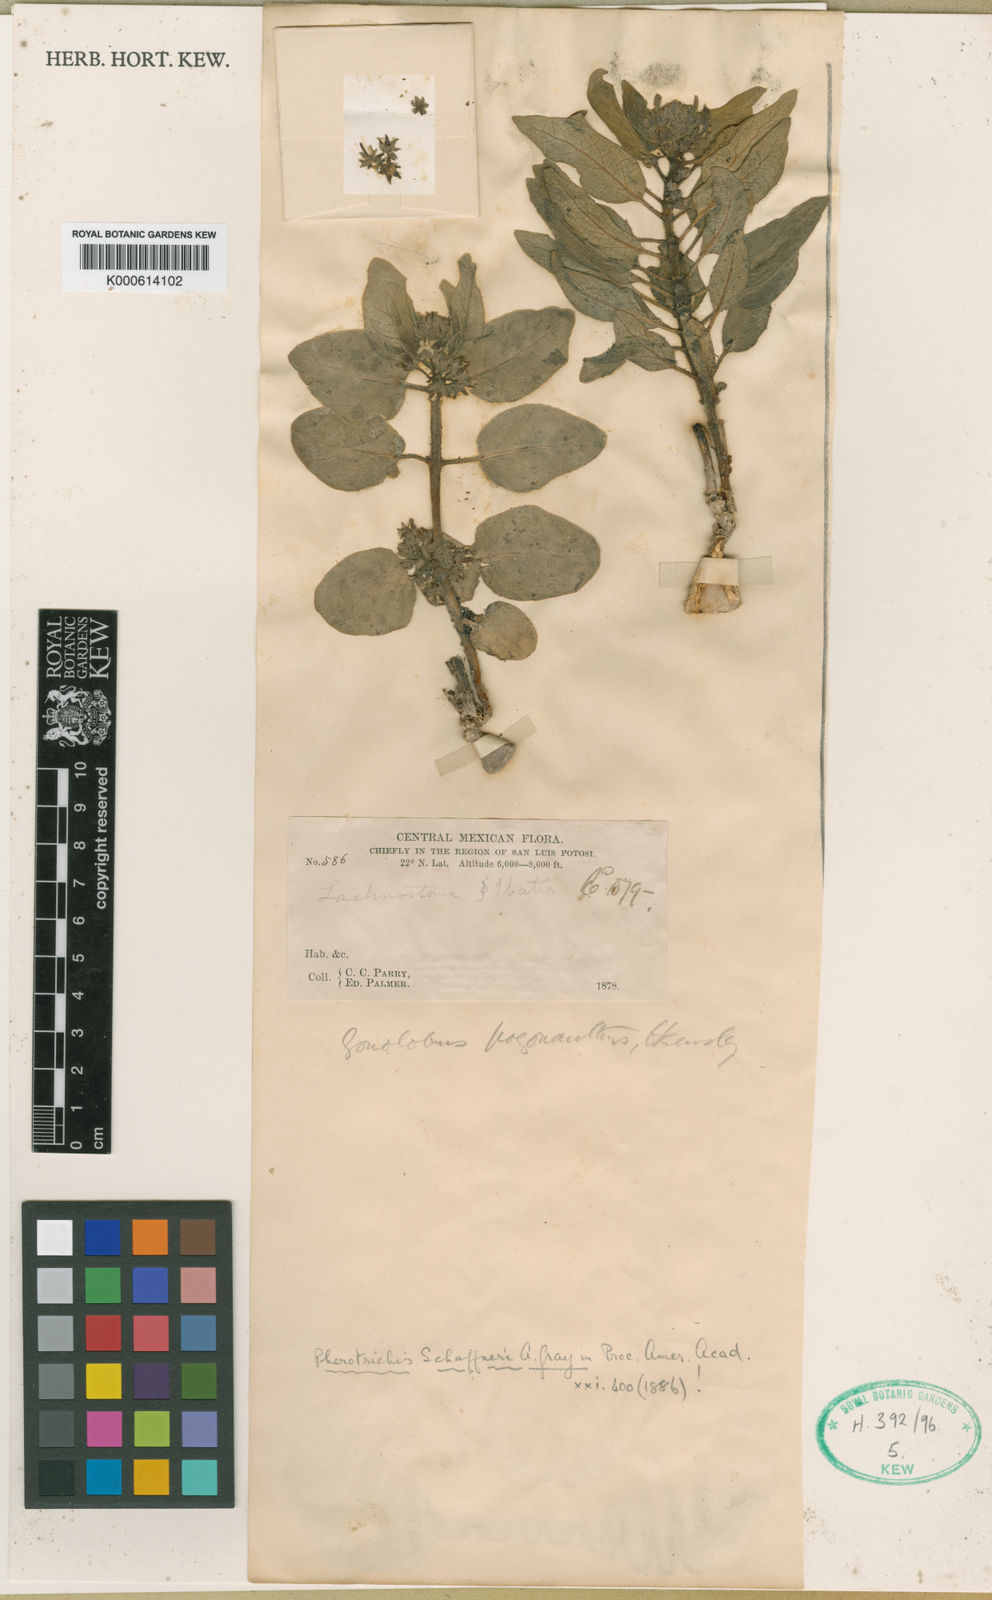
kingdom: Plantae
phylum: Tracheophyta
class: Magnoliopsida
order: Gentianales
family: Apocynaceae
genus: Pherotrichis
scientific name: Pherotrichis schaffneri
